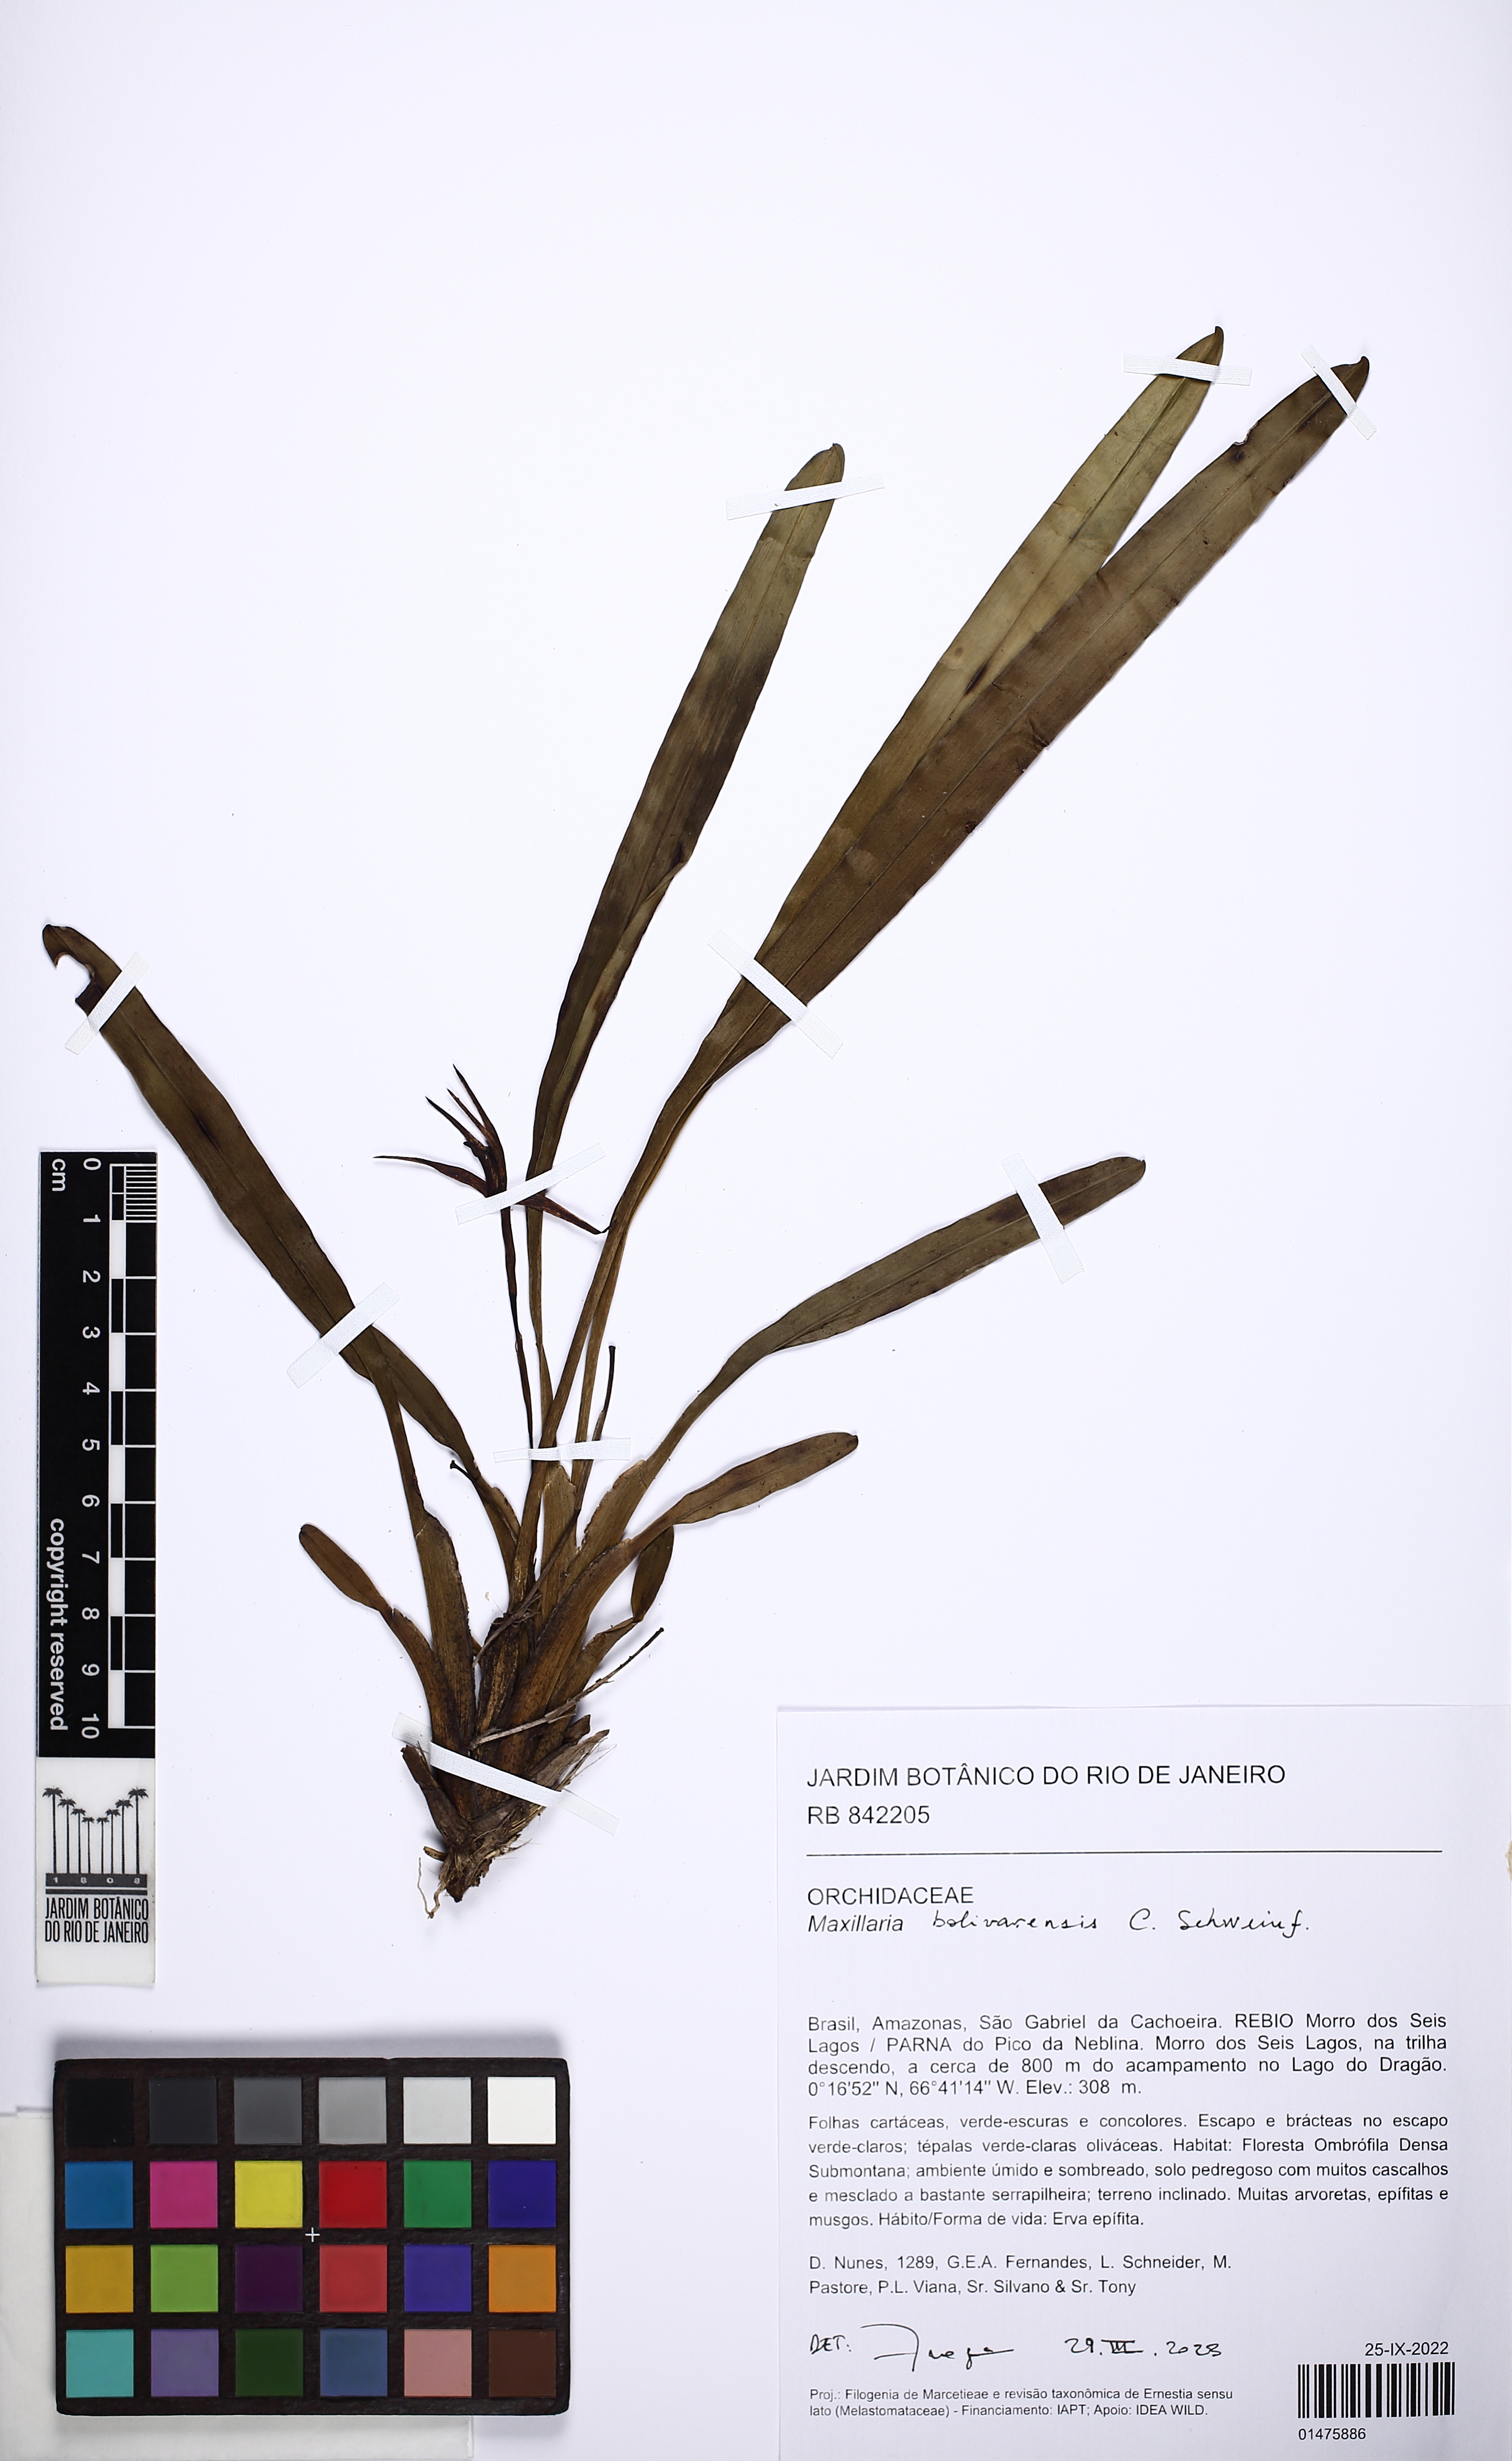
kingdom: Plantae
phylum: Tracheophyta
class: Liliopsida
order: Asparagales
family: Orchidaceae
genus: Maxillaria
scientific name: Maxillaria bolivarensis
